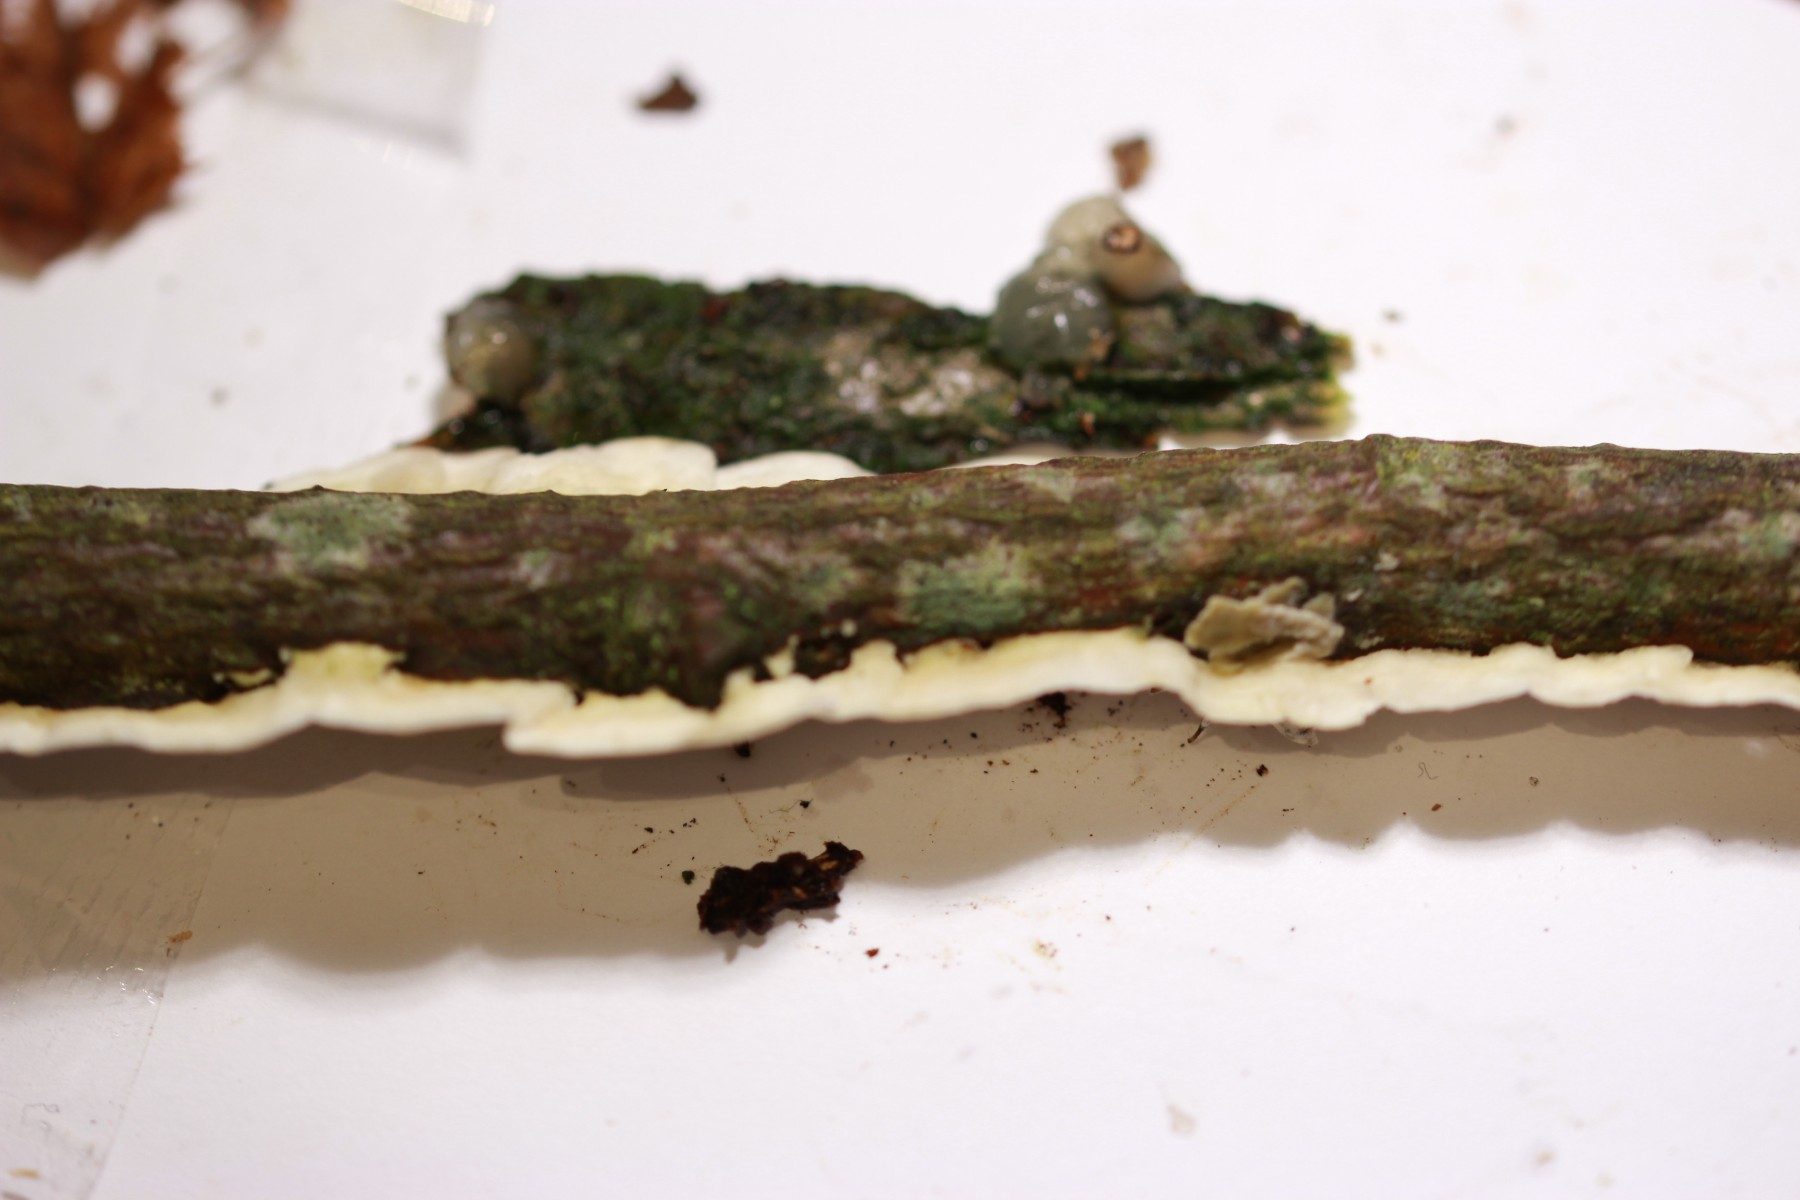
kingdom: Fungi
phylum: Basidiomycota
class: Agaricomycetes
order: Polyporales
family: Irpicaceae
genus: Byssomerulius
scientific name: Byssomerulius corium
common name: læder-åresvamp
